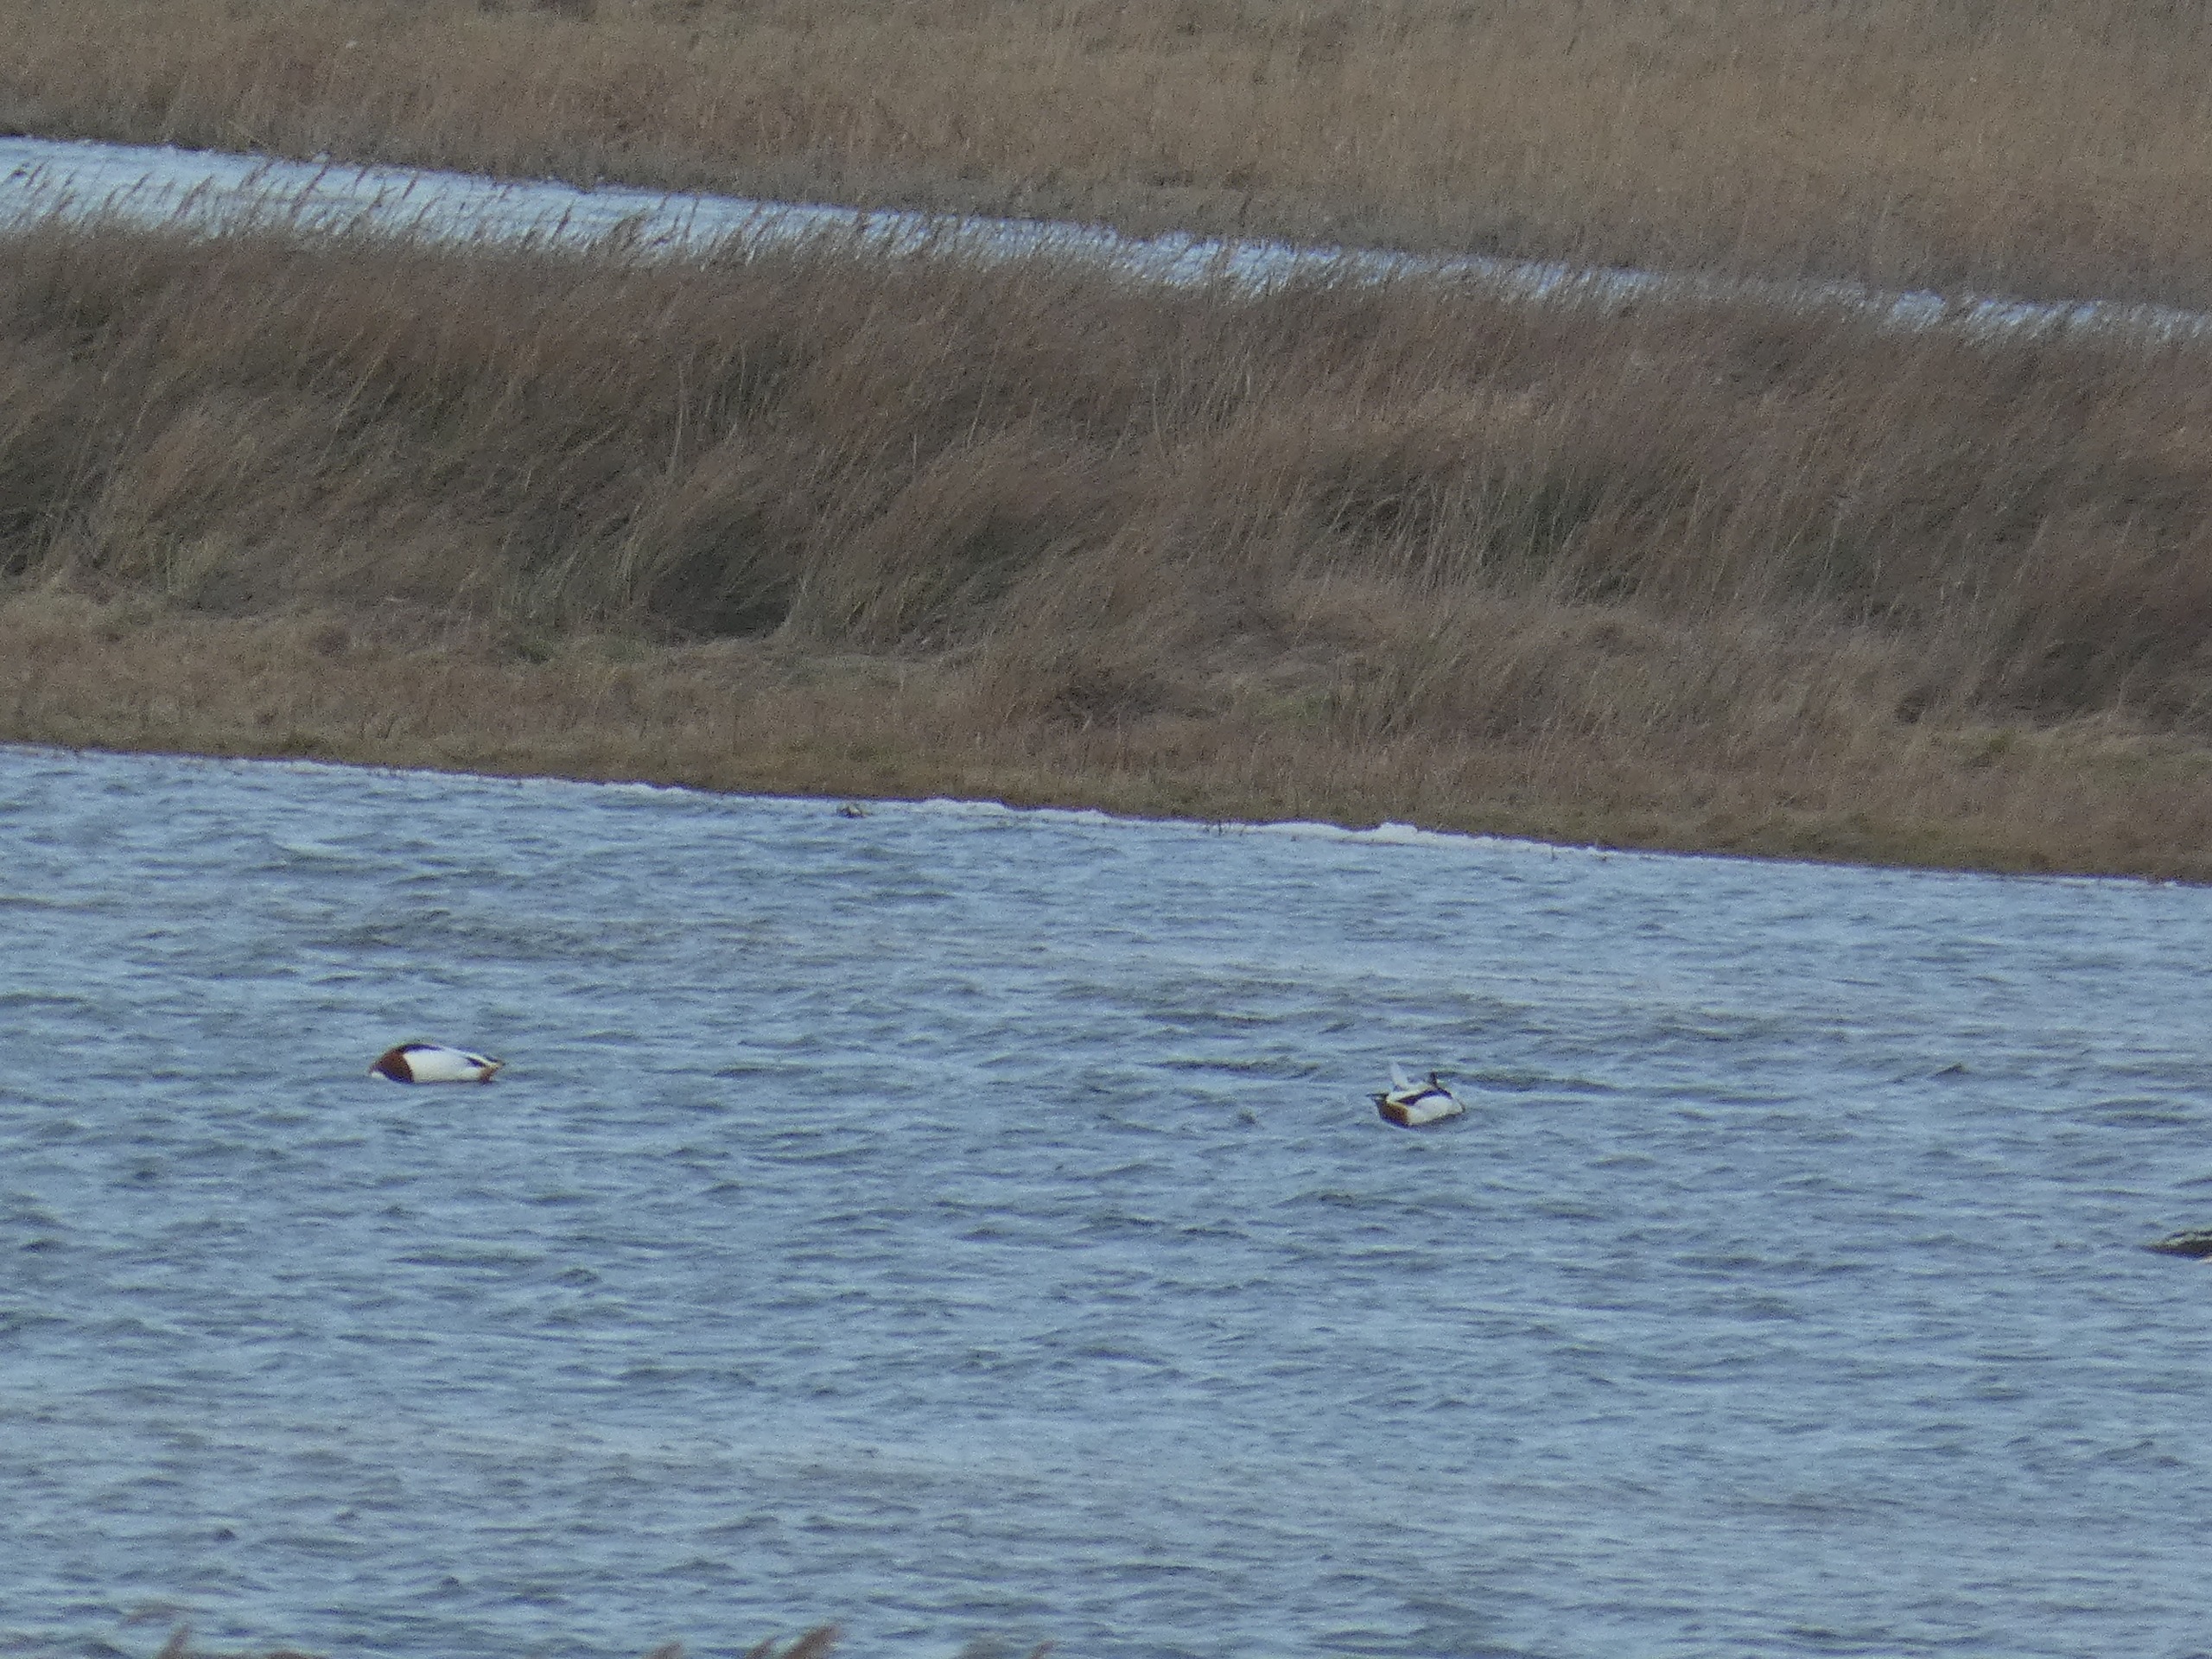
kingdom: Animalia
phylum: Chordata
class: Aves
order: Anseriformes
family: Anatidae
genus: Tadorna
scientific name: Tadorna tadorna
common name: Gravand
